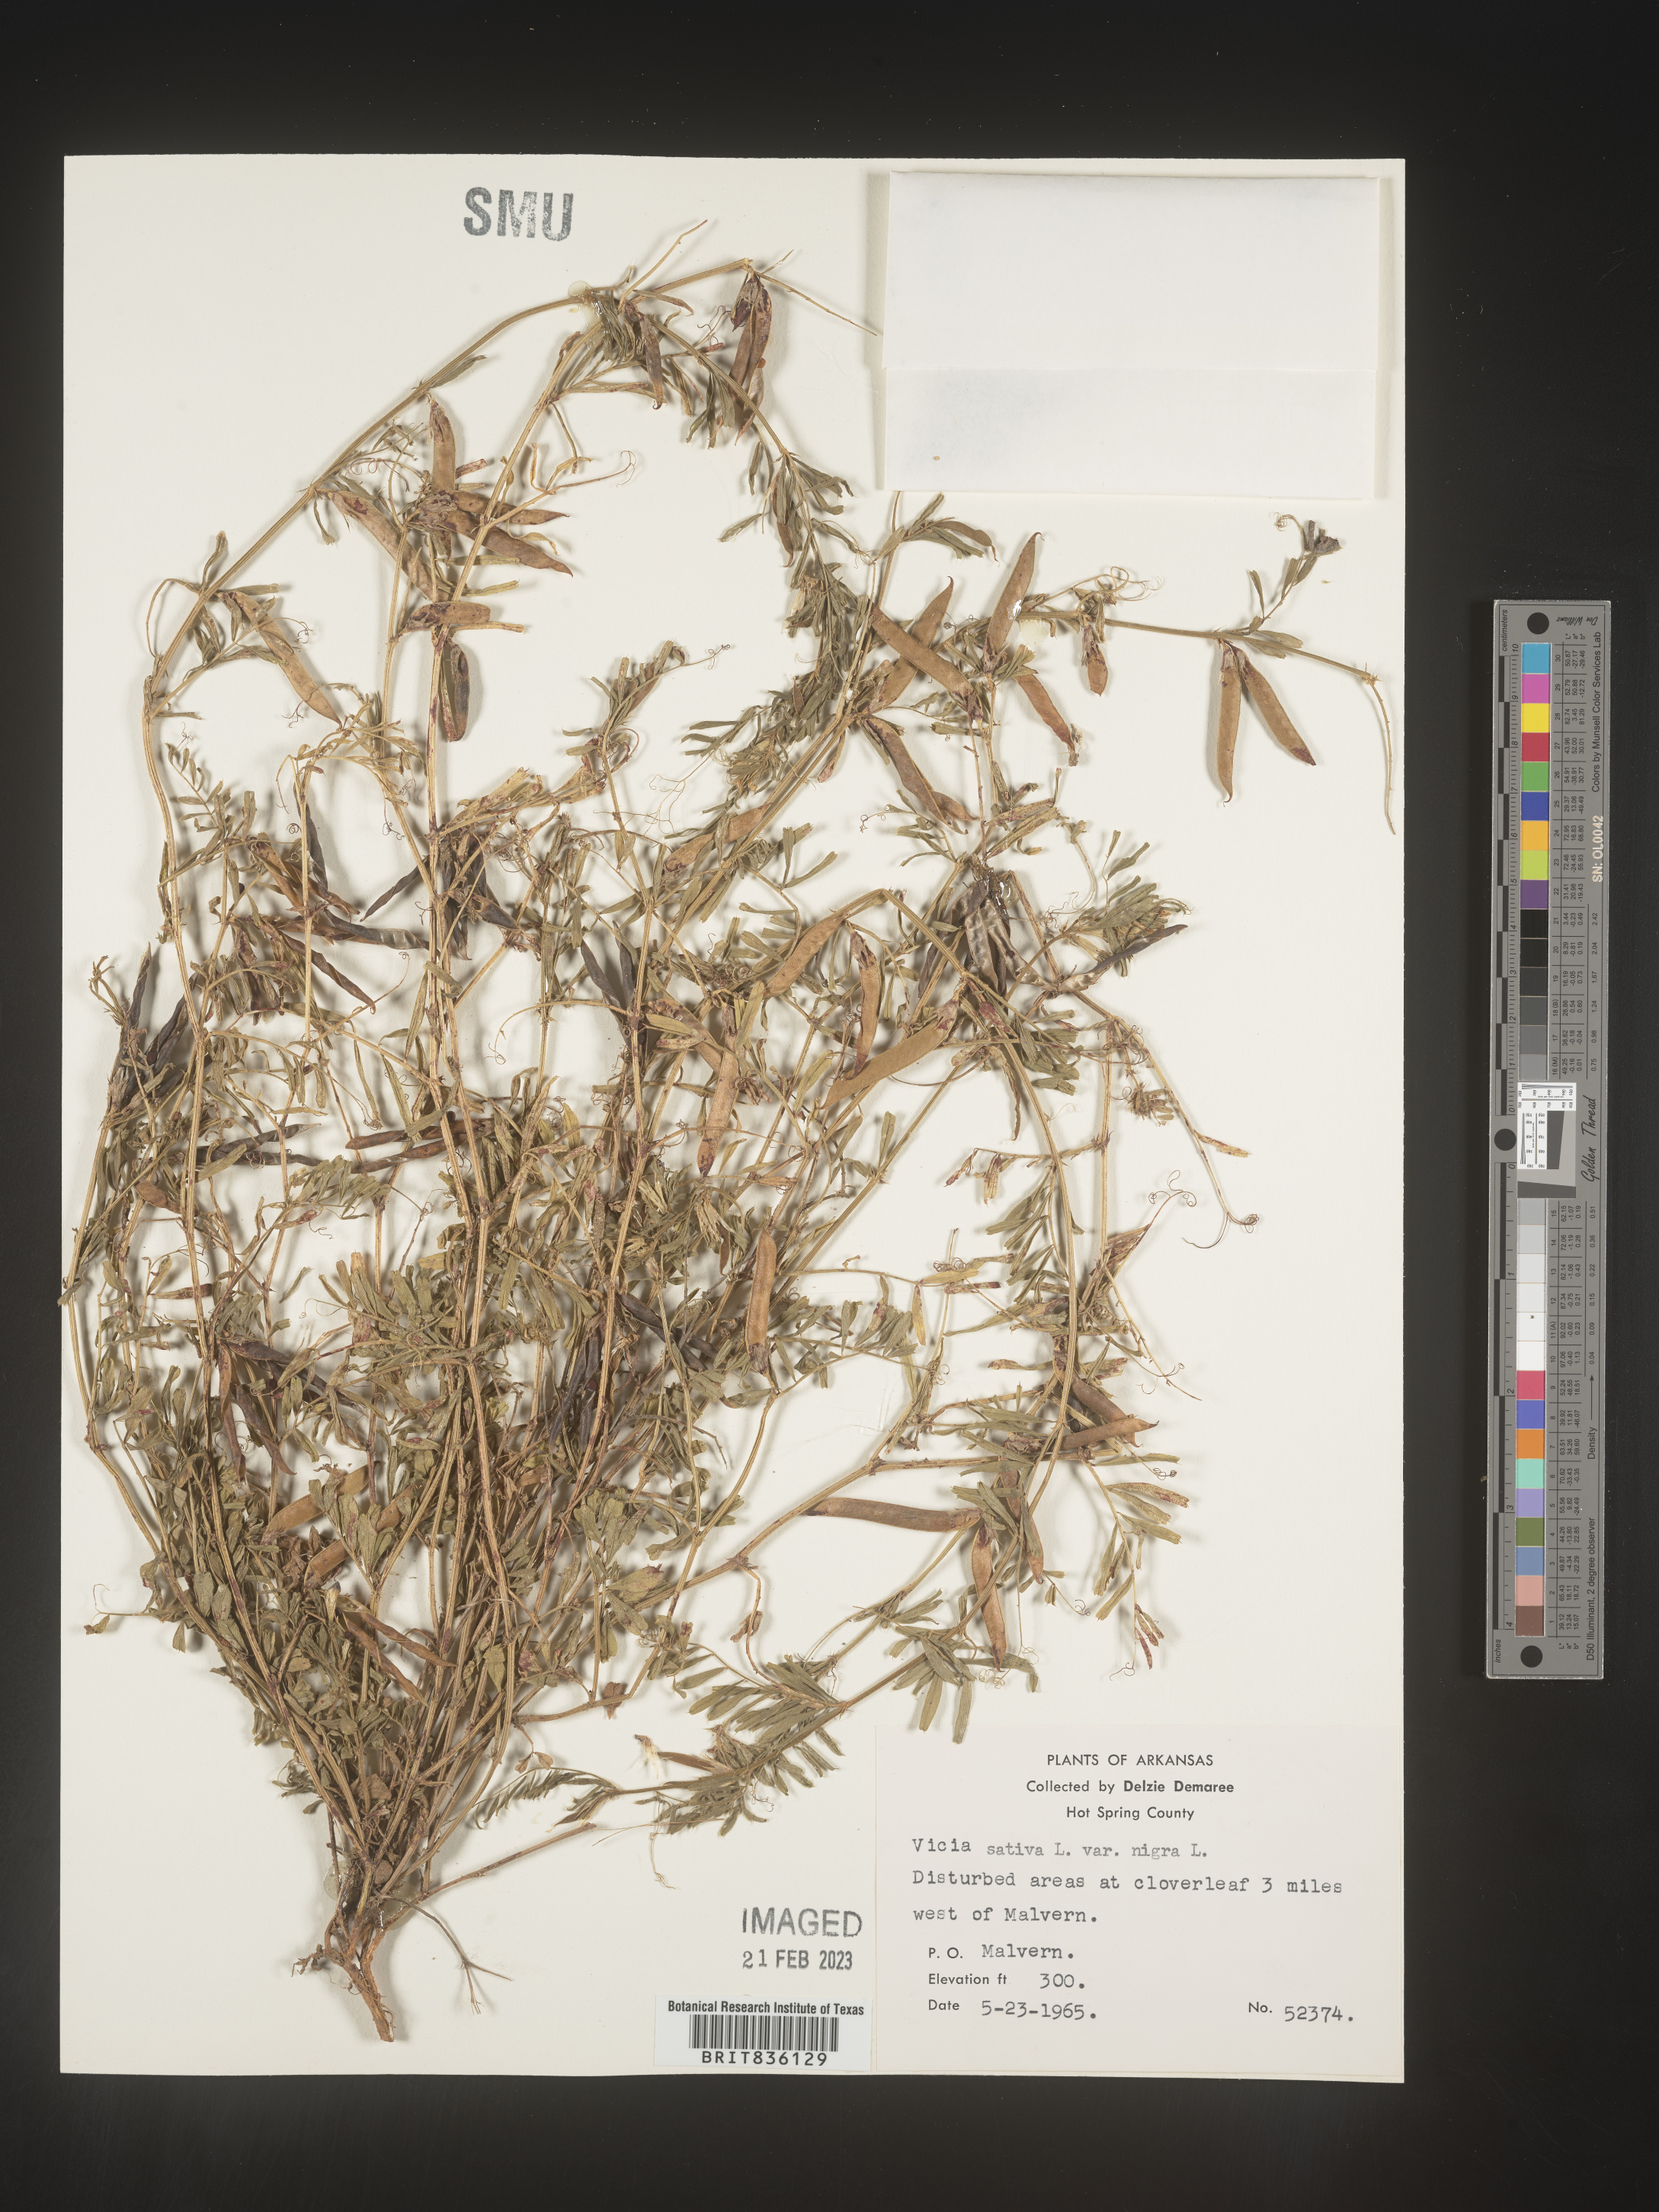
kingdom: Plantae
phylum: Tracheophyta
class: Magnoliopsida
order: Fabales
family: Fabaceae
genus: Vicia
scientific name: Vicia sativa
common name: Garden vetch
